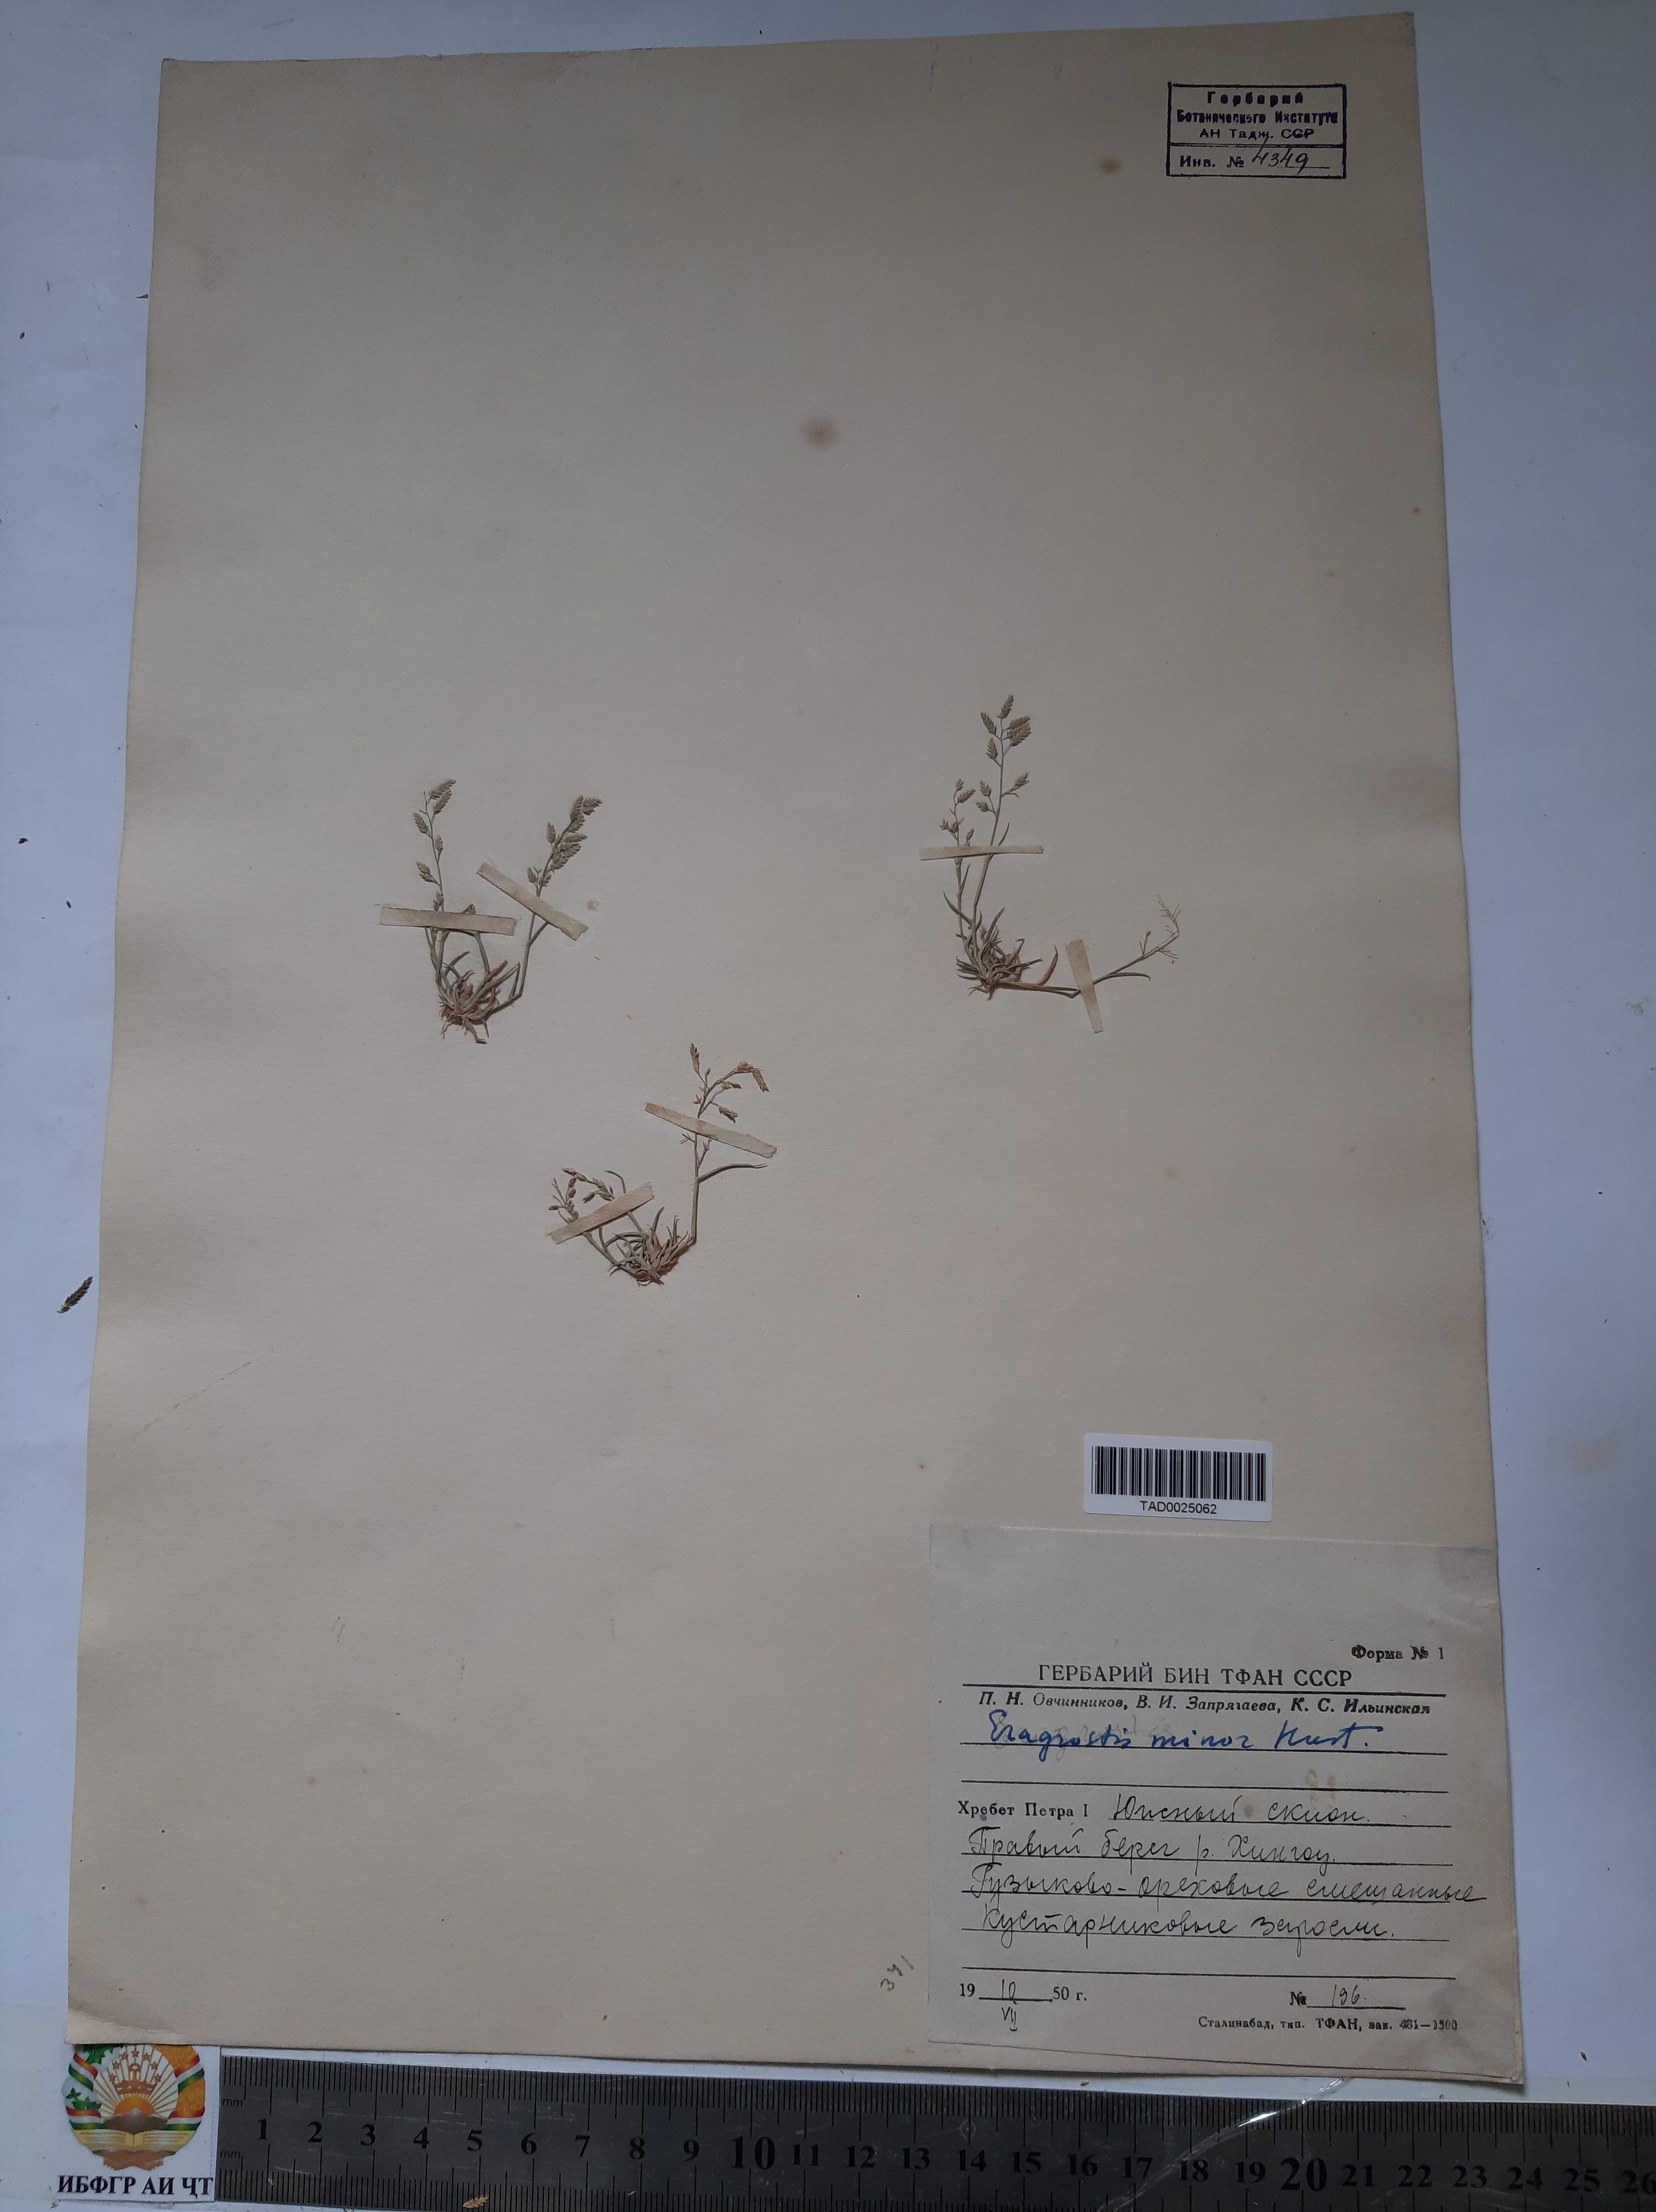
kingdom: Plantae
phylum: Tracheophyta
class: Liliopsida
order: Poales
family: Poaceae
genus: Eragrostis
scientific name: Eragrostis minor
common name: Small love-grass
